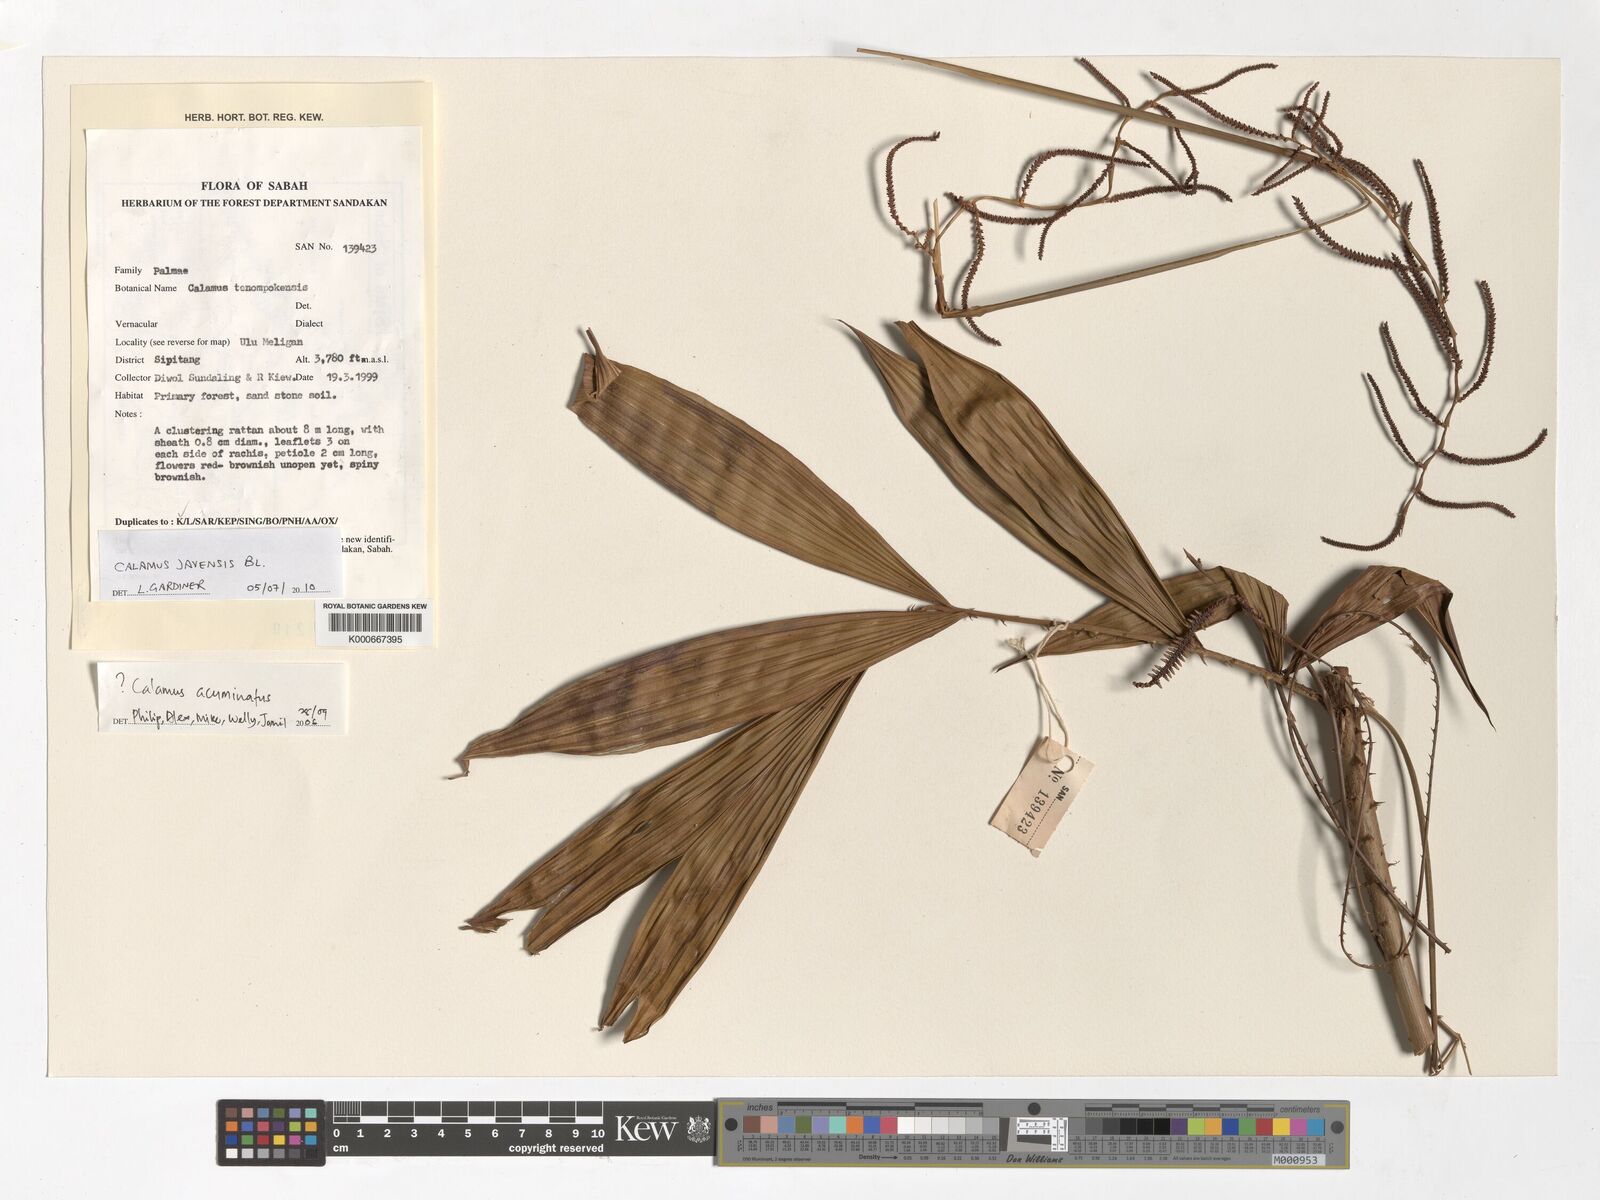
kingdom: Plantae
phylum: Tracheophyta
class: Liliopsida
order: Arecales
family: Arecaceae
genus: Calamus
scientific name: Calamus javensis
